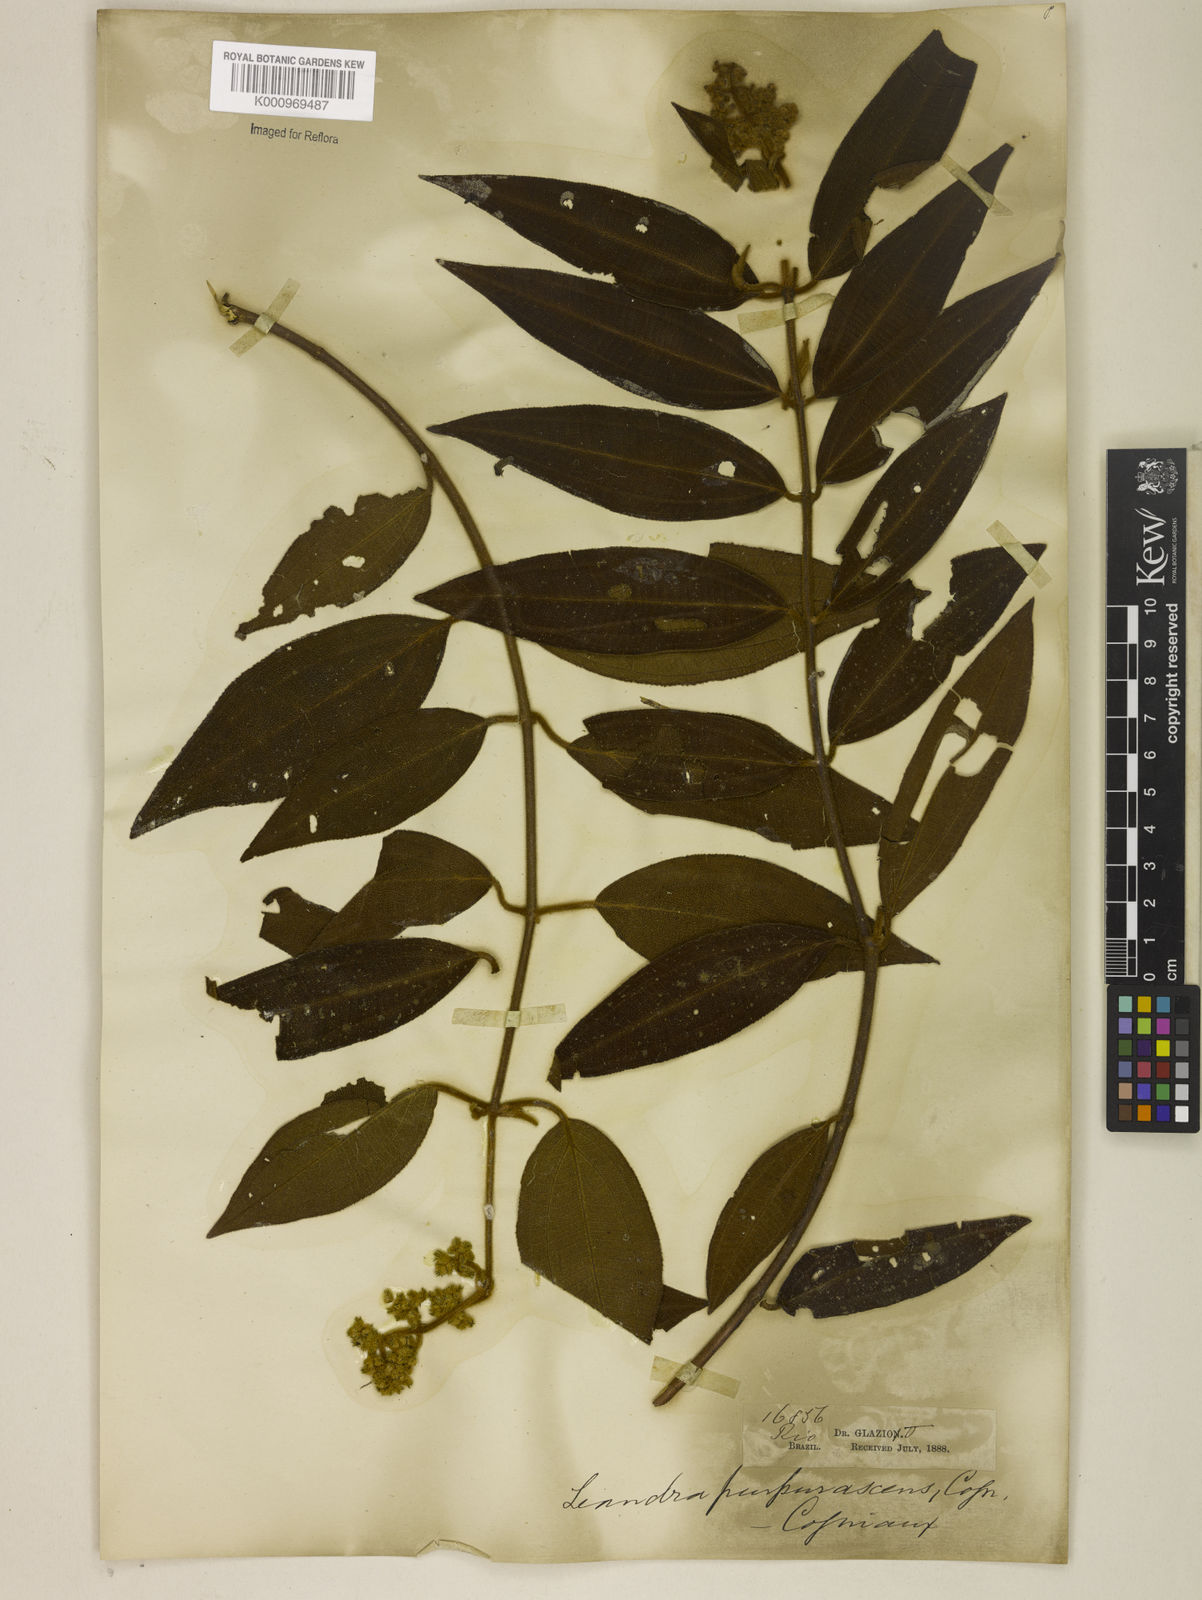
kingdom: Plantae
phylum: Tracheophyta
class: Magnoliopsida
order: Myrtales
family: Melastomataceae
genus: Miconia
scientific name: Miconia microstachya
